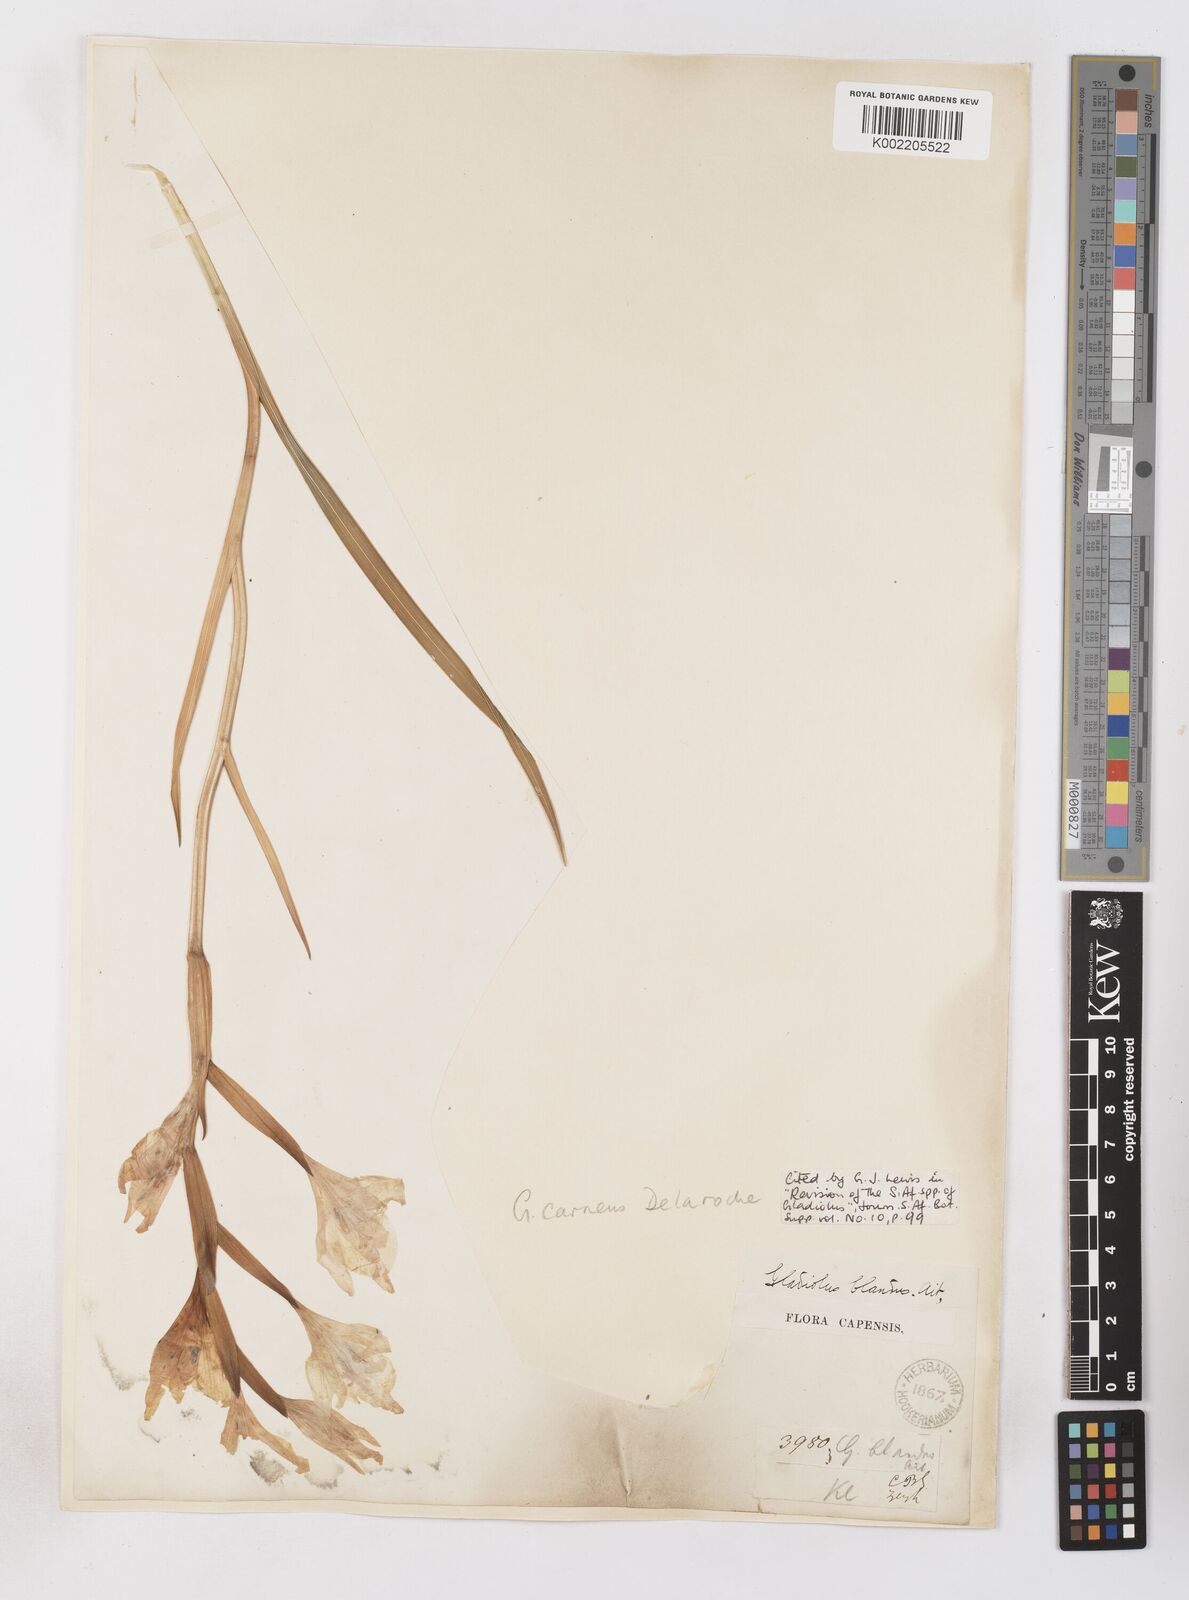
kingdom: Plantae
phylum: Tracheophyta
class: Liliopsida
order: Asparagales
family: Iridaceae
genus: Gladiolus
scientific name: Gladiolus carneus
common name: Painted-lady
